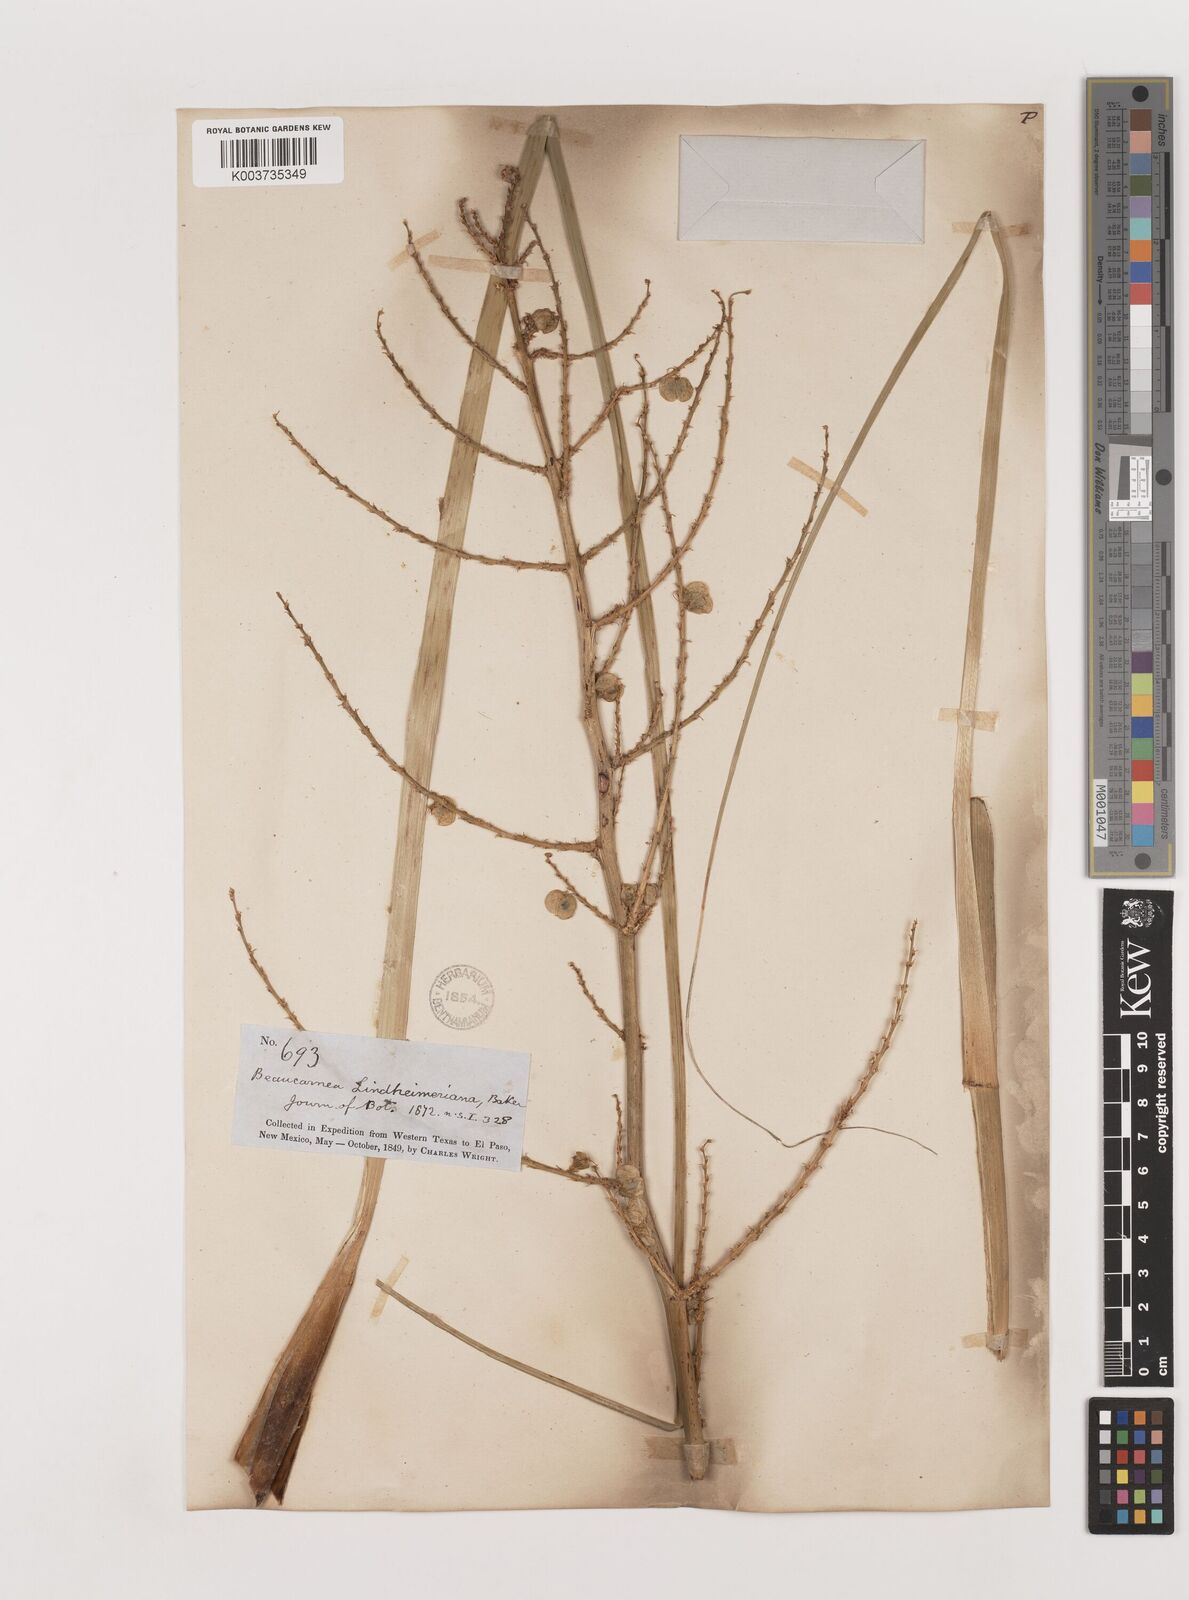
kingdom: Plantae
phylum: Tracheophyta
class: Liliopsida
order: Asparagales
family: Asparagaceae
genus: Nolina
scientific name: Nolina lindheimeriana
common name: Lindheimer's bear-grass
